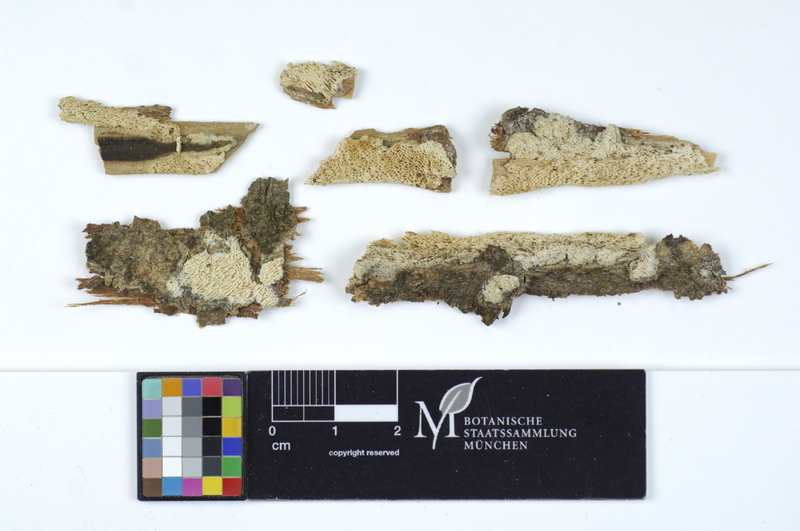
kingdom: Fungi
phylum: Basidiomycota
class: Agaricomycetes
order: Polyporales
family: Fomitopsidaceae
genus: Antrodia
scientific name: Antrodia macra
